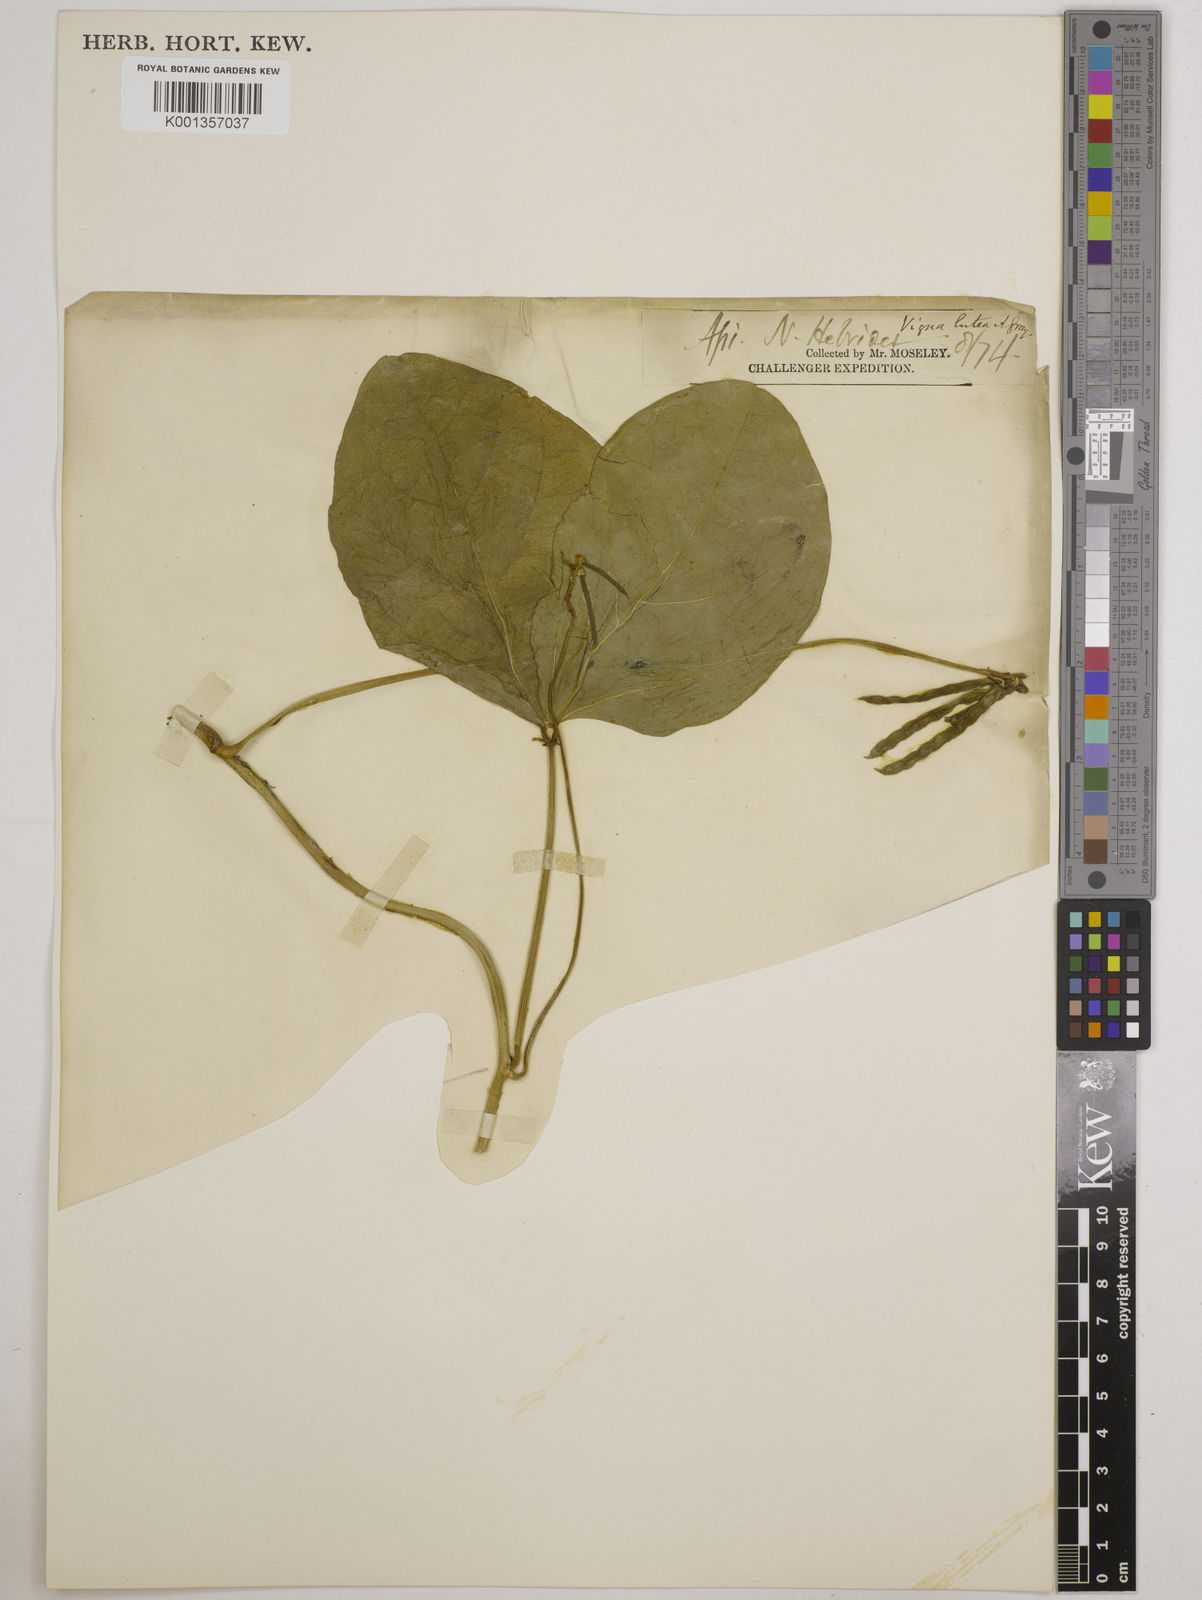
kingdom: Plantae
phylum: Tracheophyta
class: Magnoliopsida
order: Fabales
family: Fabaceae
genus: Vigna
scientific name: Vigna marina
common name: Dune-bean
